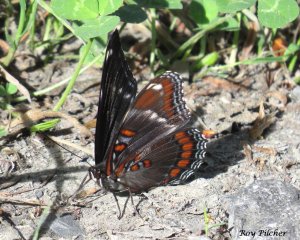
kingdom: Animalia
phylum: Arthropoda
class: Insecta
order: Lepidoptera
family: Nymphalidae
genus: Limenitis
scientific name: Limenitis
